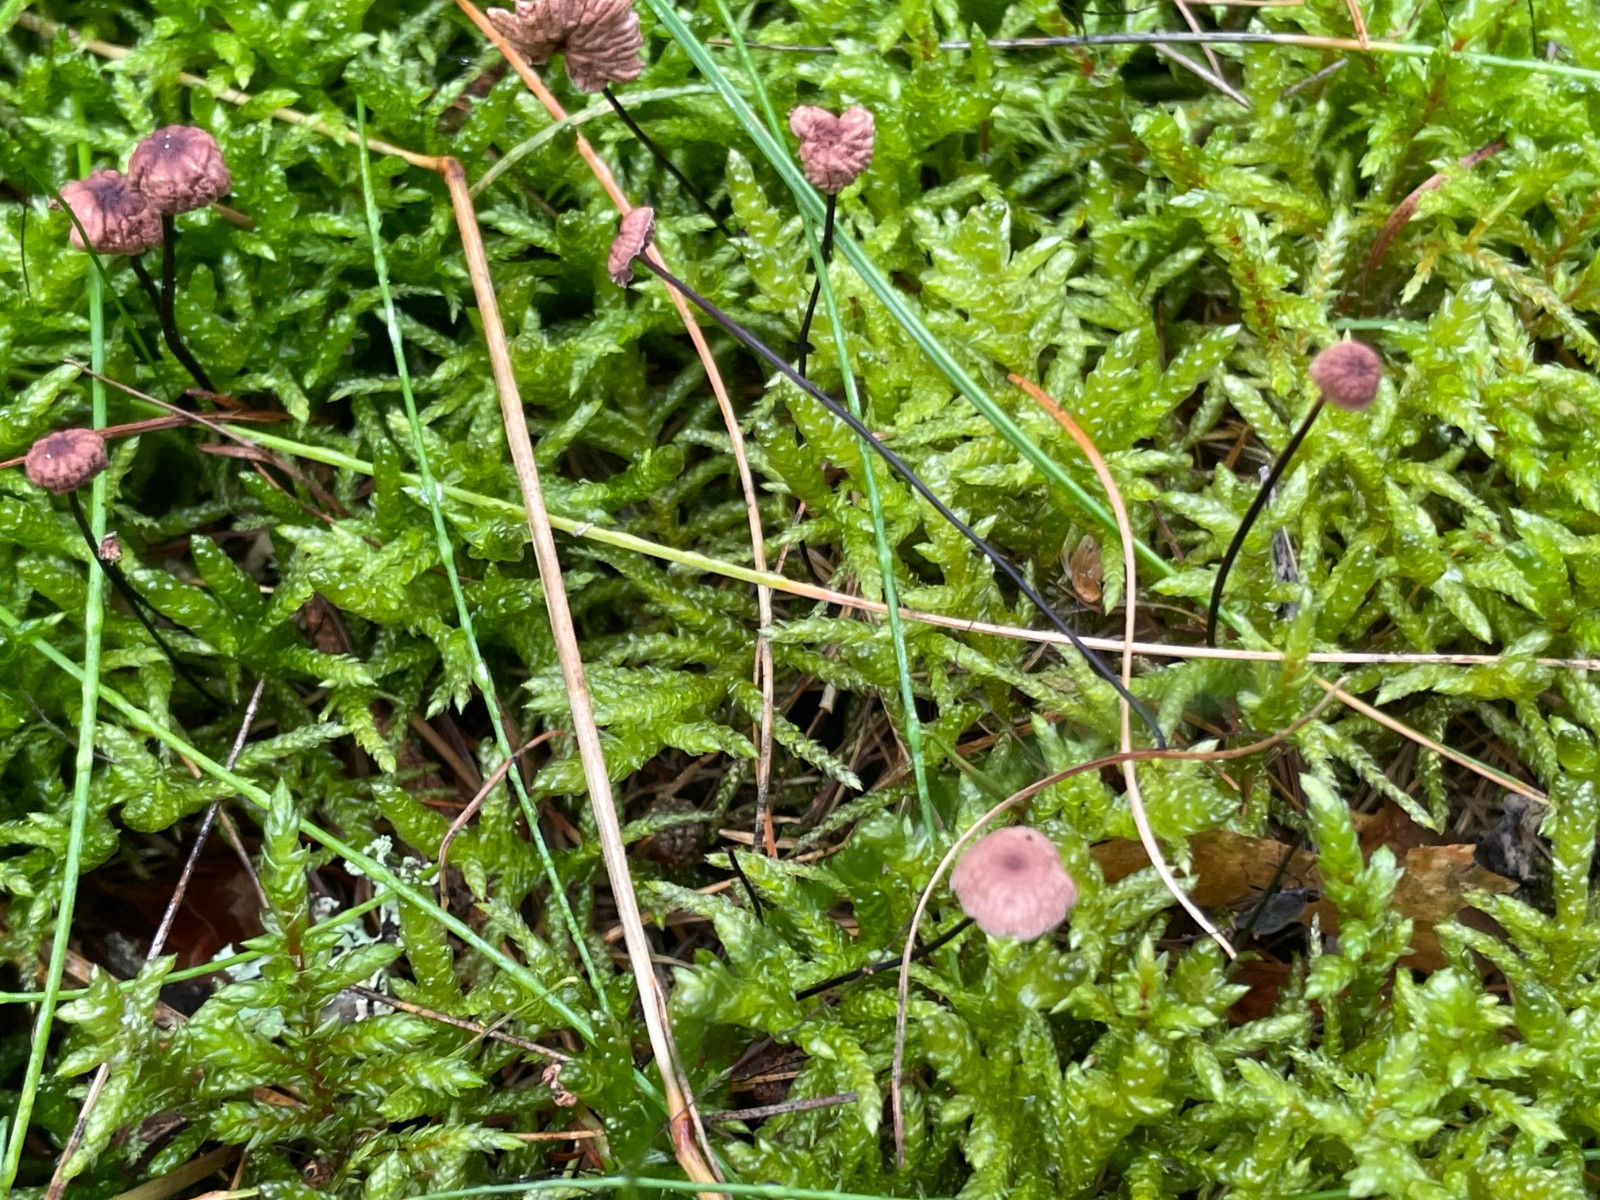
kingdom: Fungi
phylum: Basidiomycota
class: Agaricomycetes
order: Agaricales
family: Omphalotaceae
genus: Gymnopus
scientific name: Gymnopus androsaceus
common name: trådstokket fladhat
